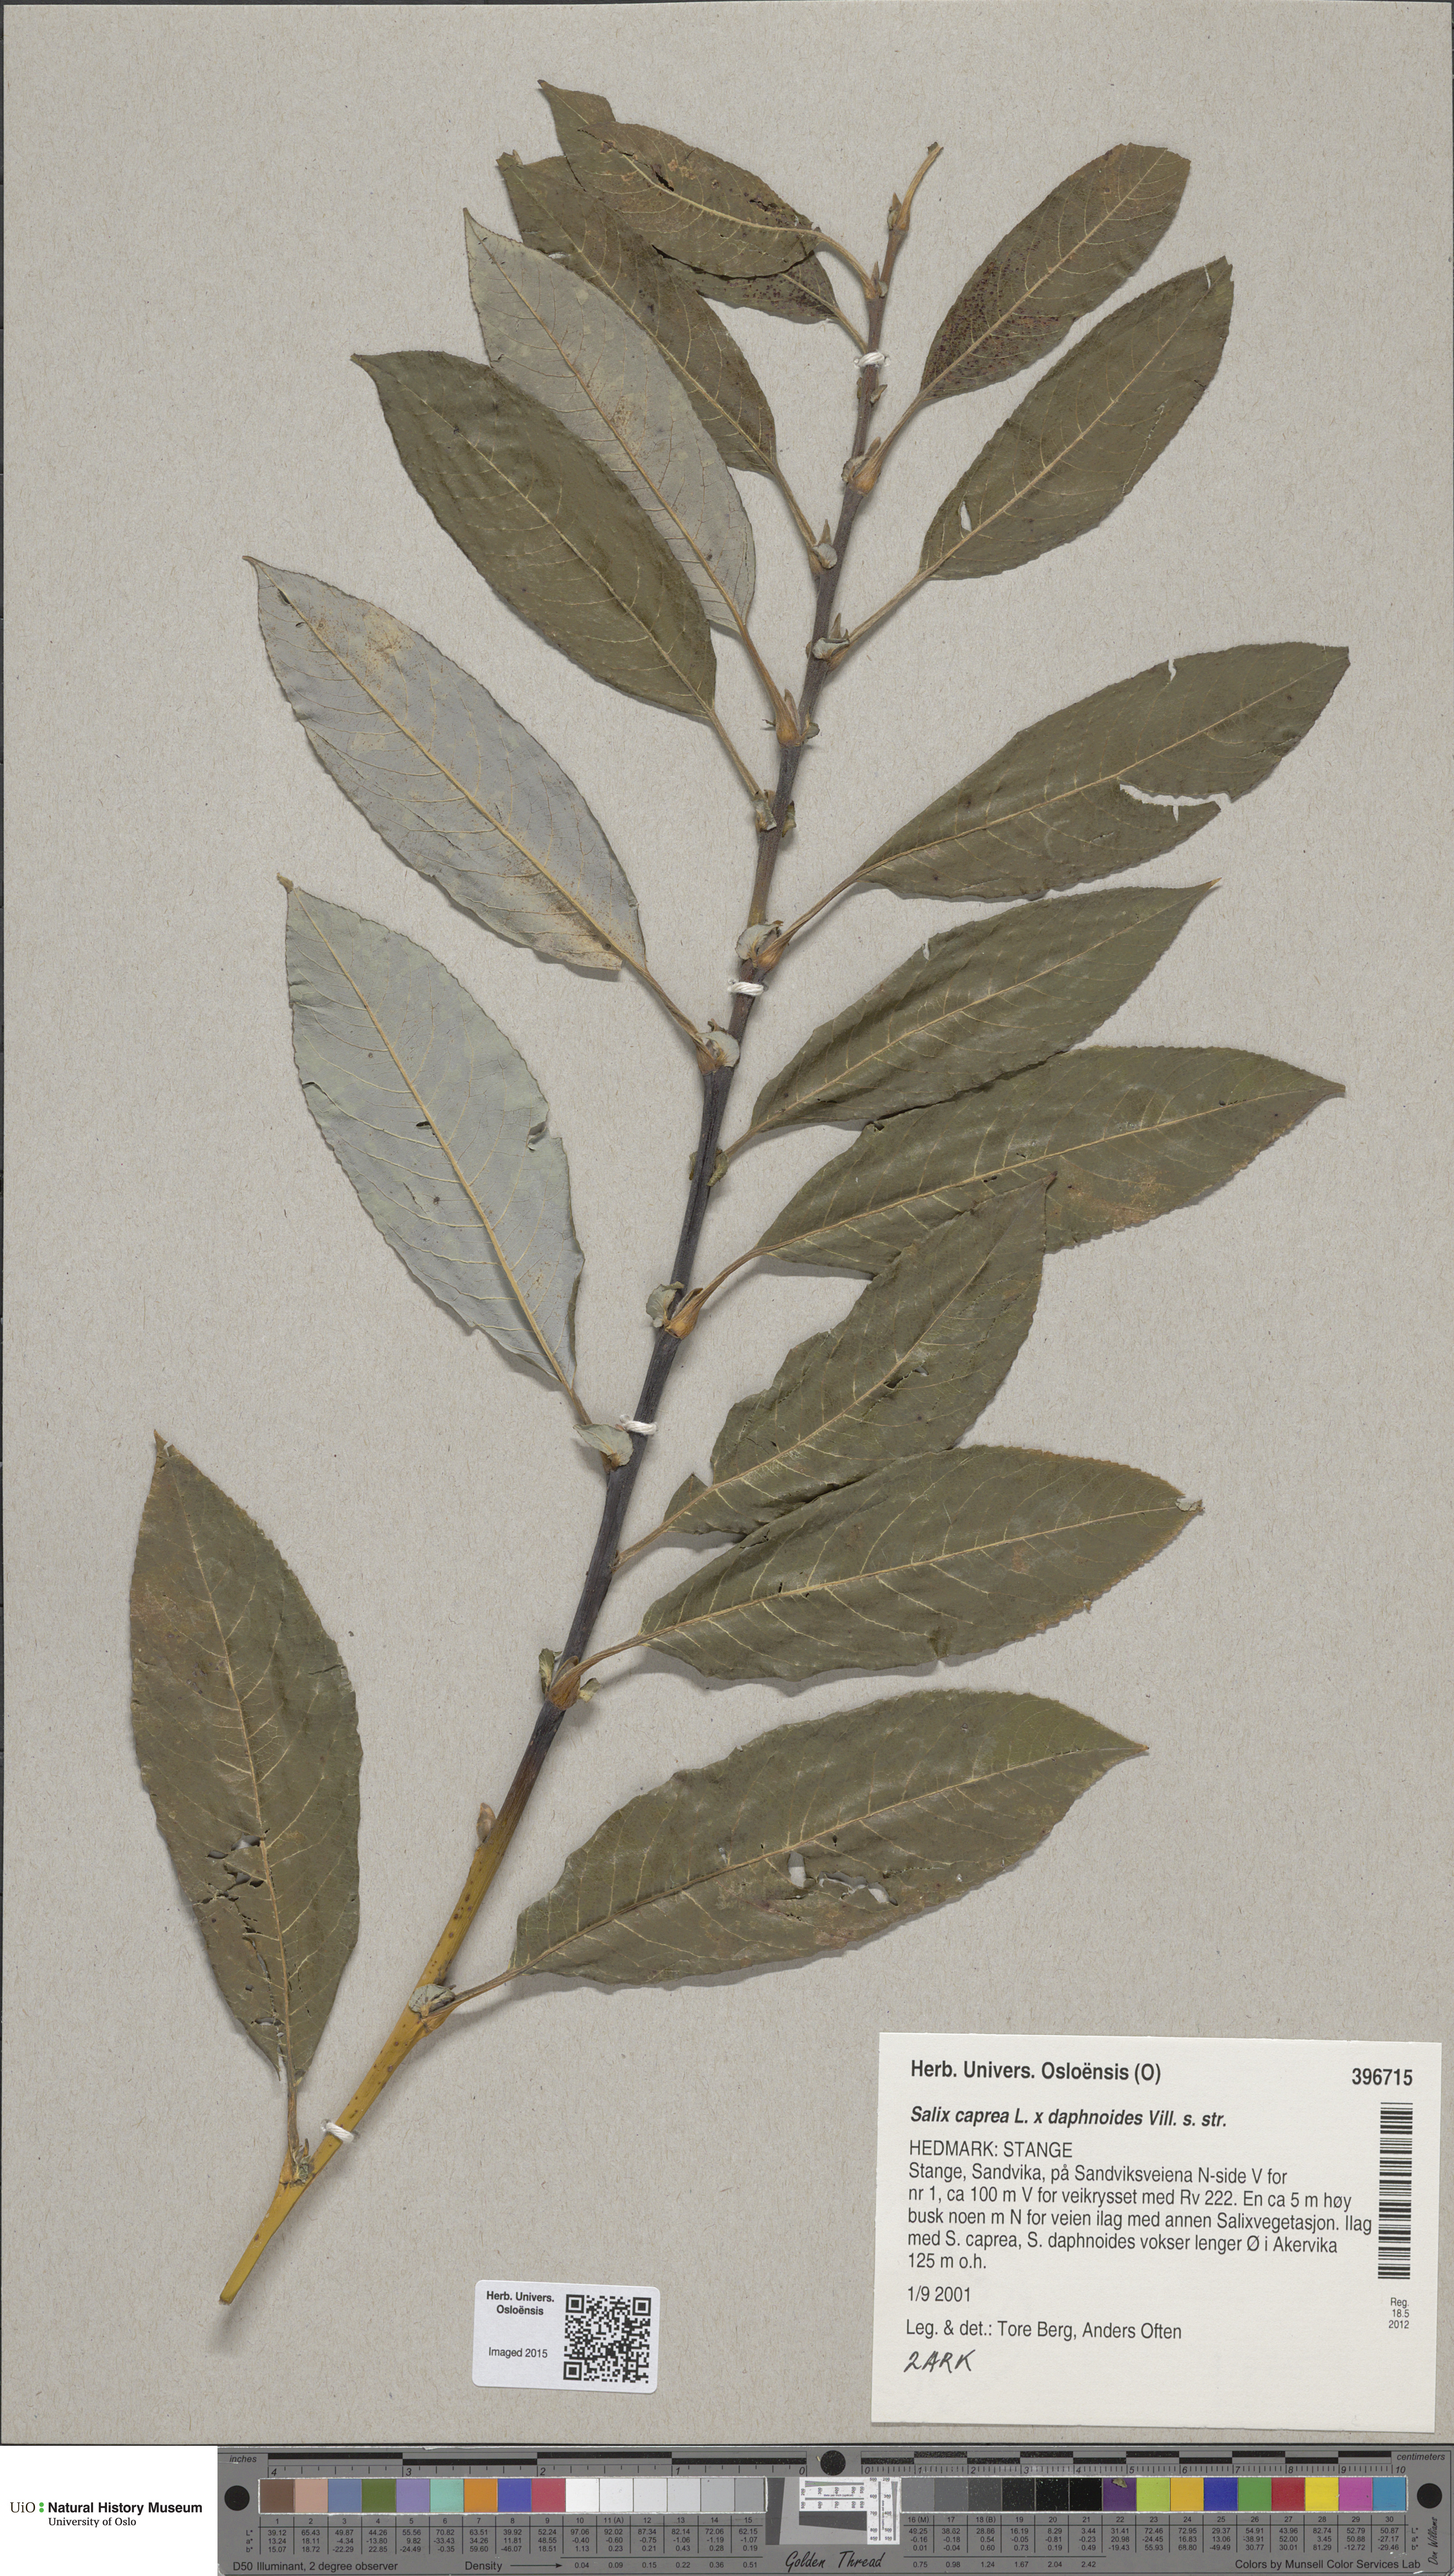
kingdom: Plantae
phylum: Tracheophyta
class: Magnoliopsida
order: Malpighiales
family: Salicaceae
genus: Salix
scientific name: Salix caprea
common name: Goat willow
